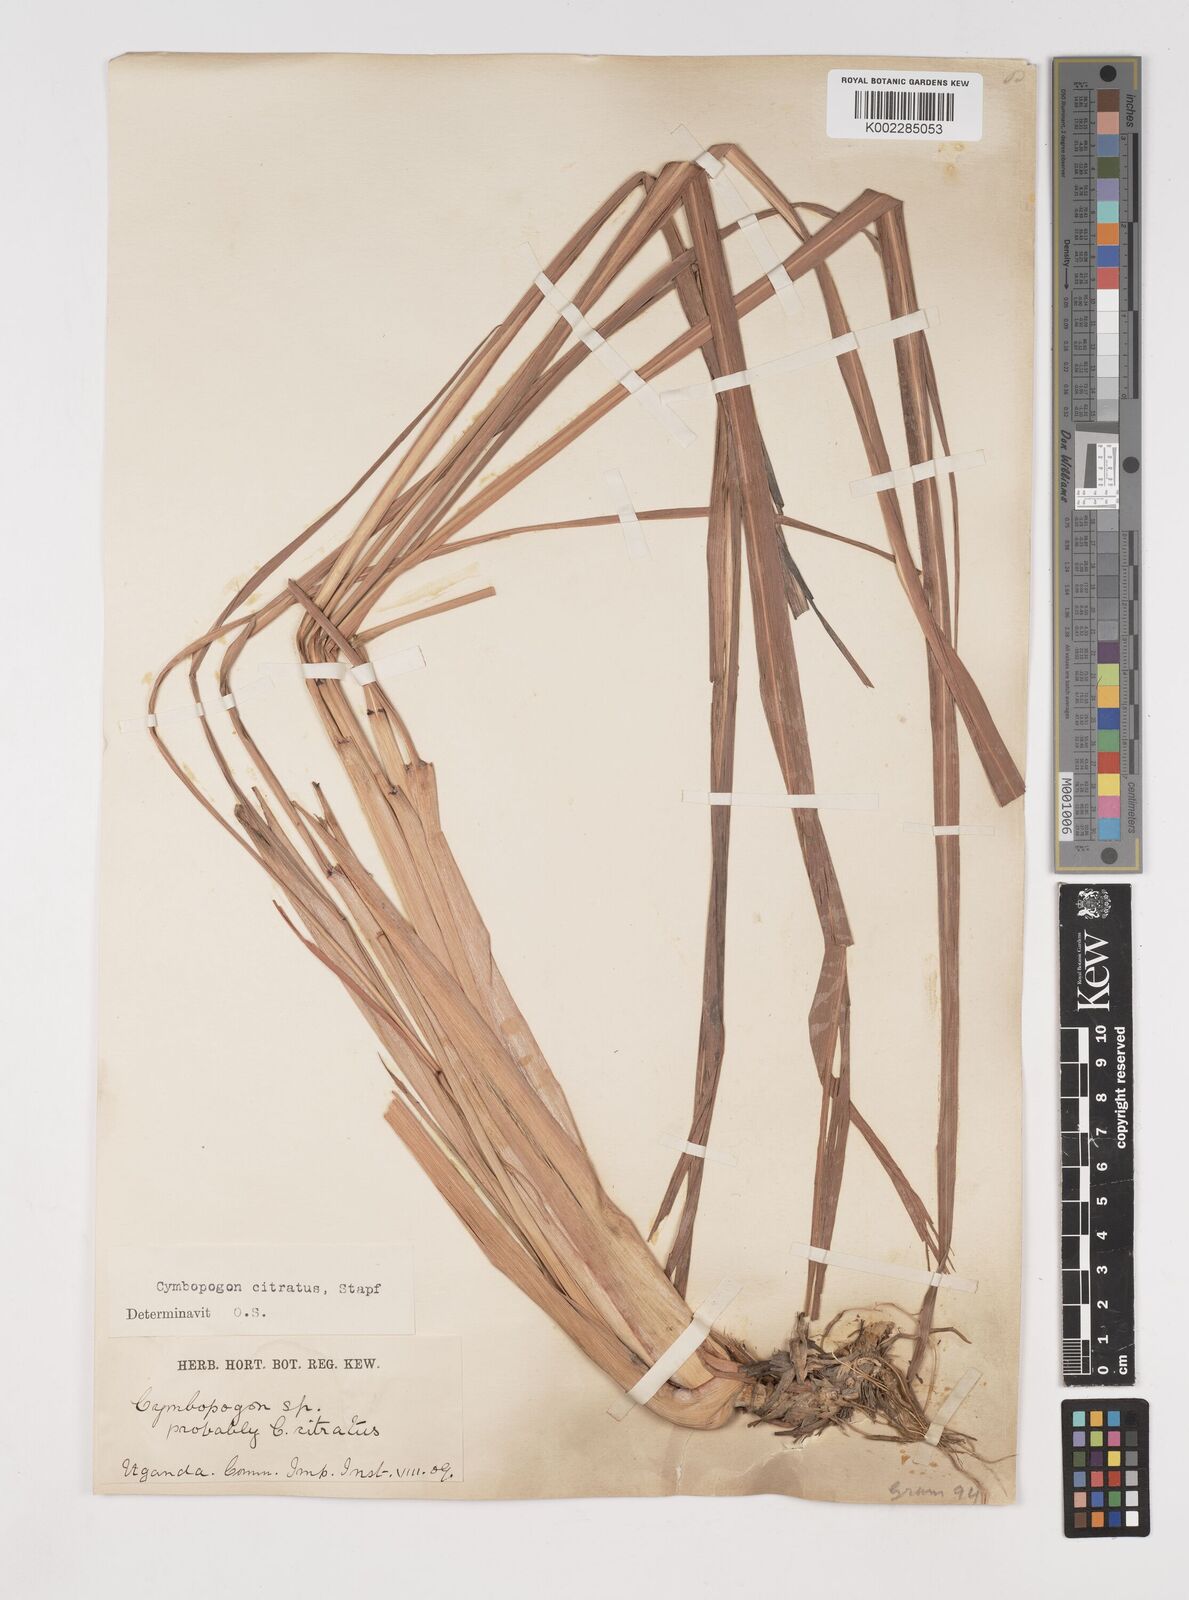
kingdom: Plantae
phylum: Tracheophyta
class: Liliopsida
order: Poales
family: Poaceae
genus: Cymbopogon
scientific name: Cymbopogon citratus
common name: Lemon grass
